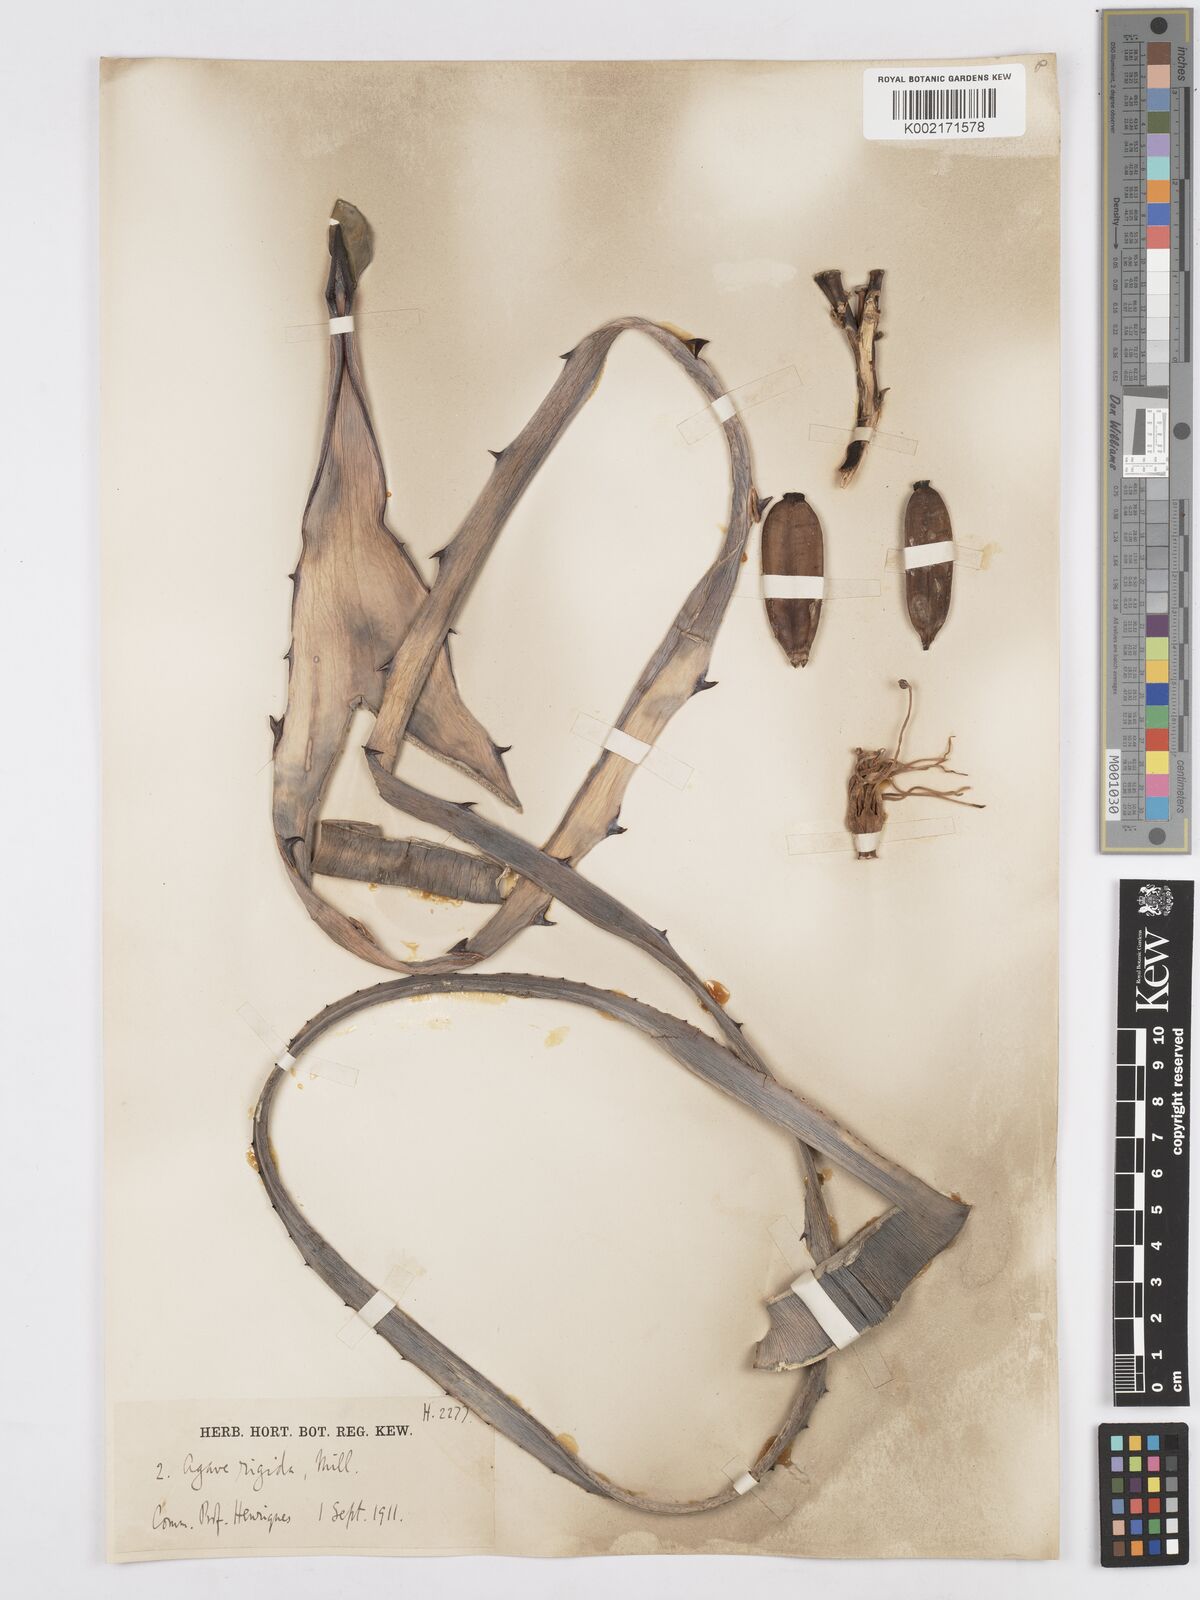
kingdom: Plantae
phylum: Tracheophyta
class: Liliopsida
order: Asparagales
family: Asparagaceae
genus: Agave
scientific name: Agave
